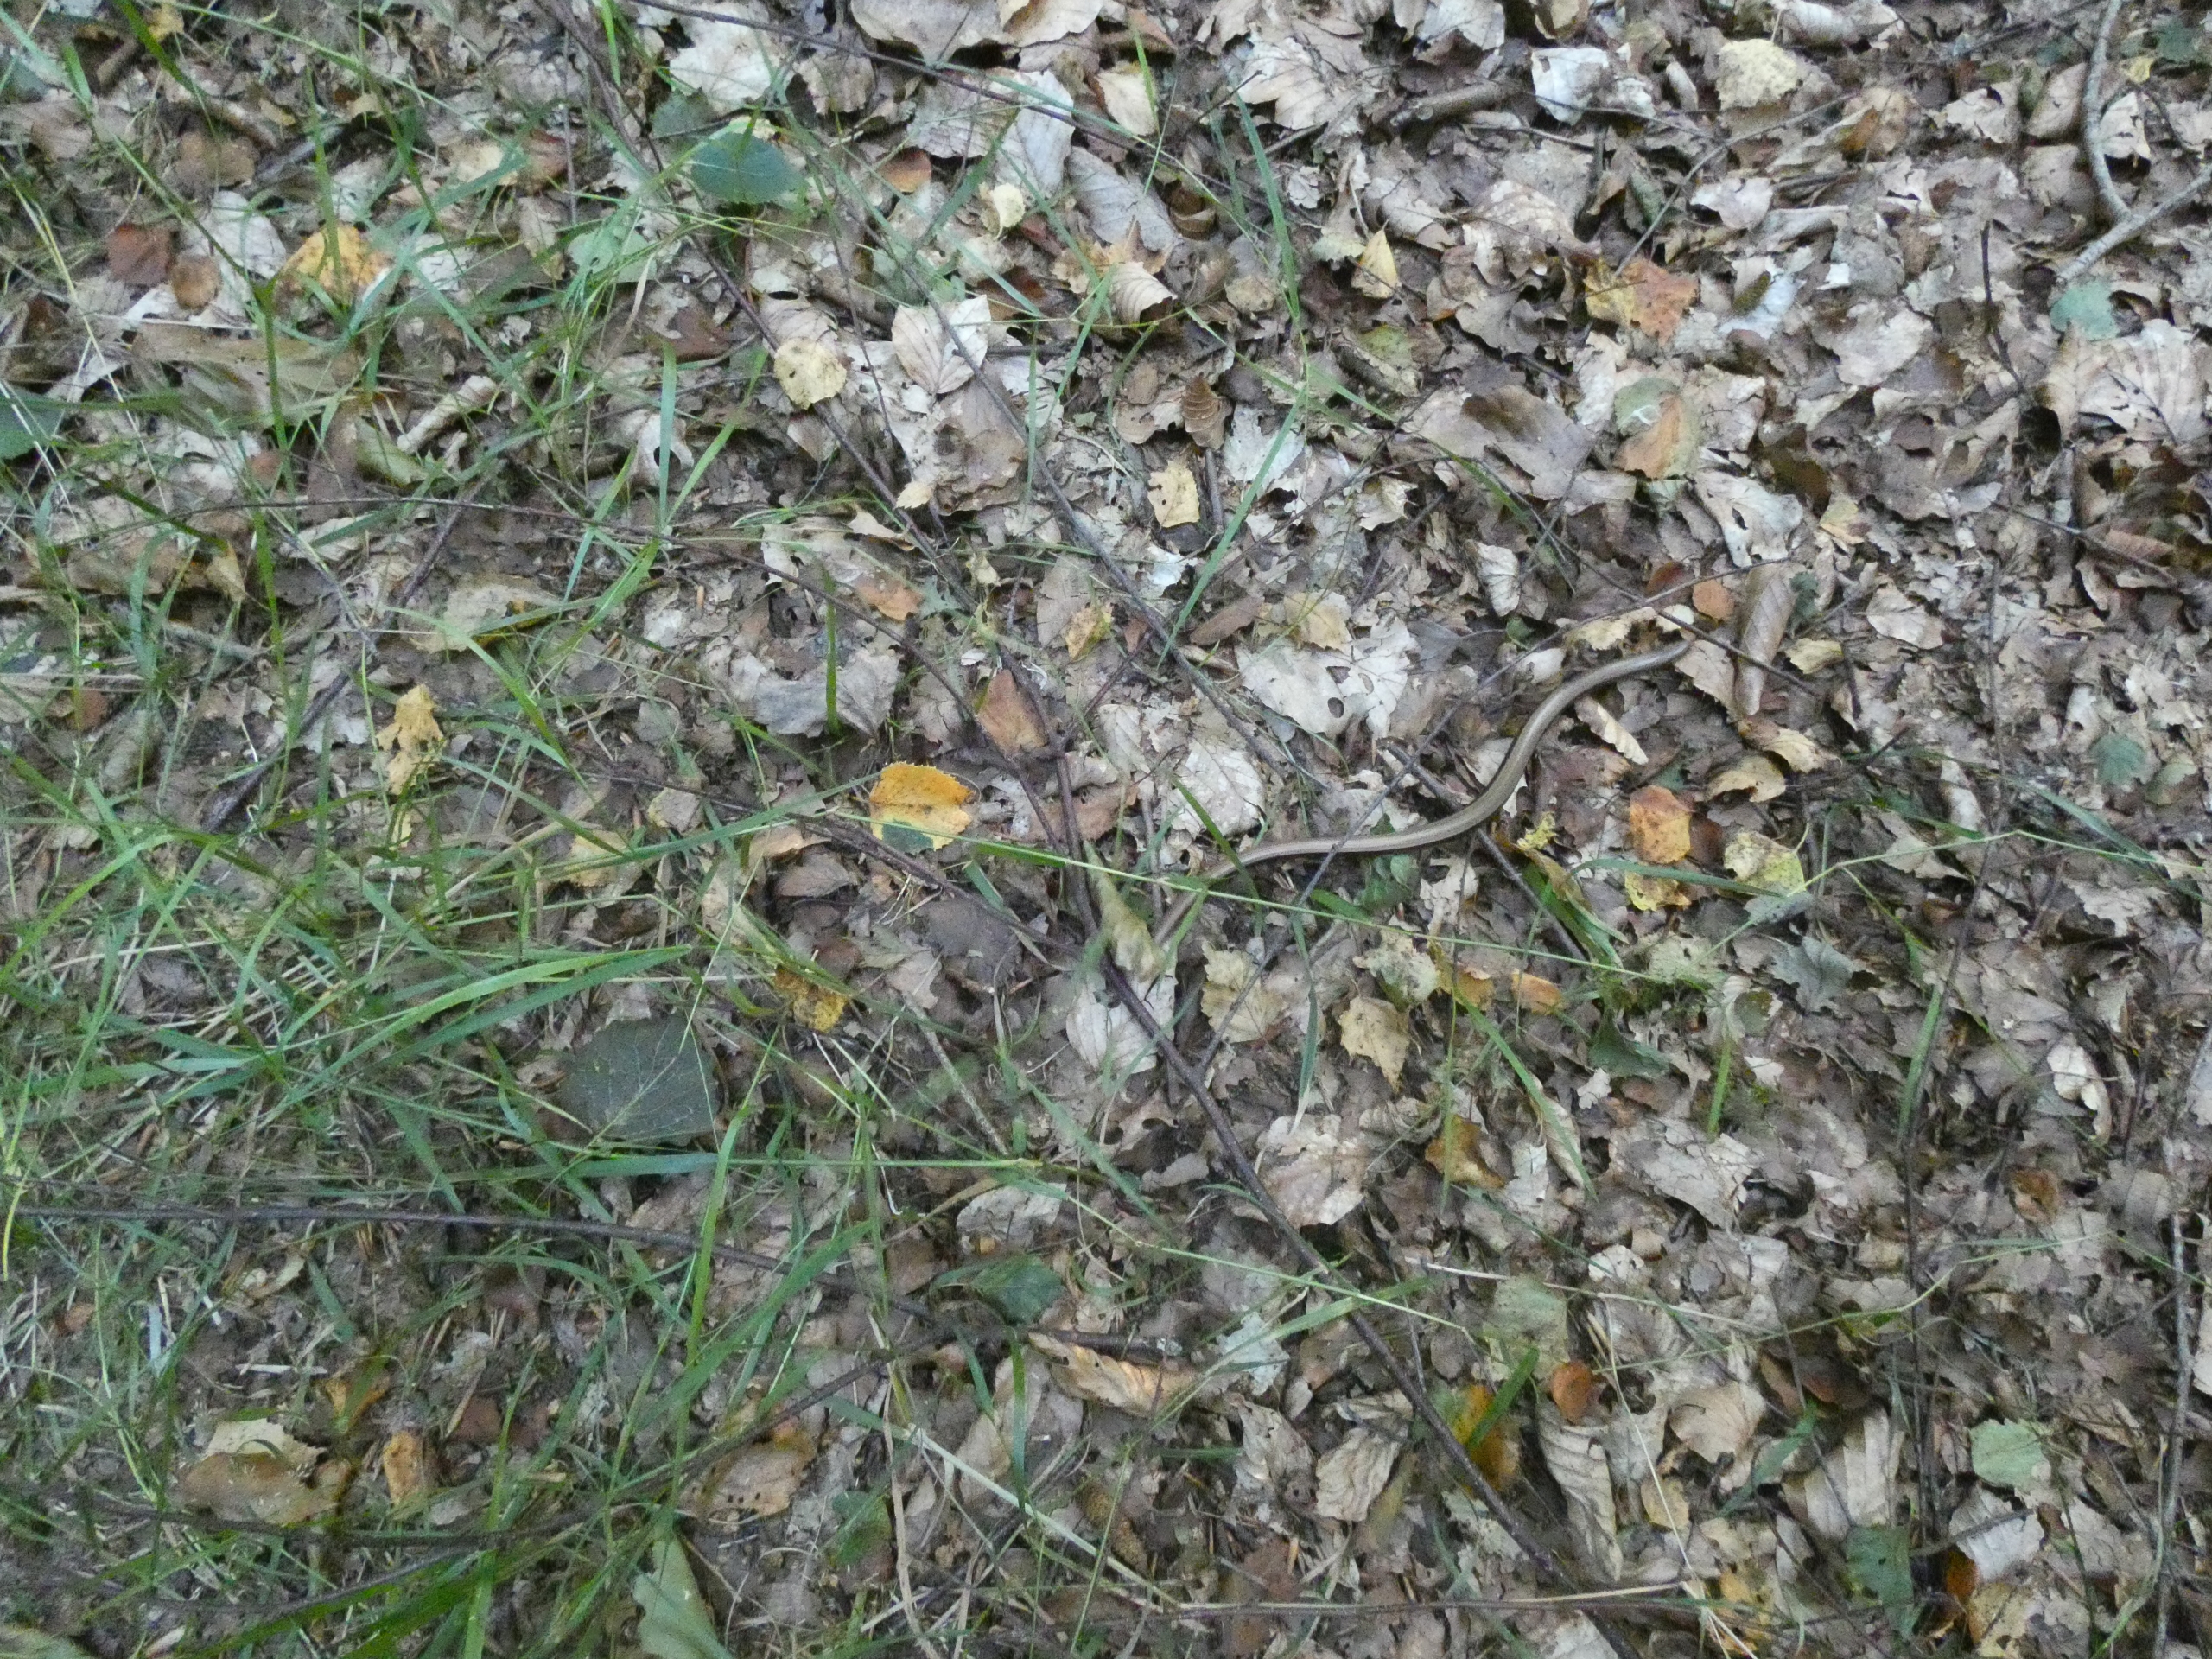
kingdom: Animalia
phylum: Chordata
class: Squamata
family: Anguidae
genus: Anguis
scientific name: Anguis fragilis
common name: Stålorm
